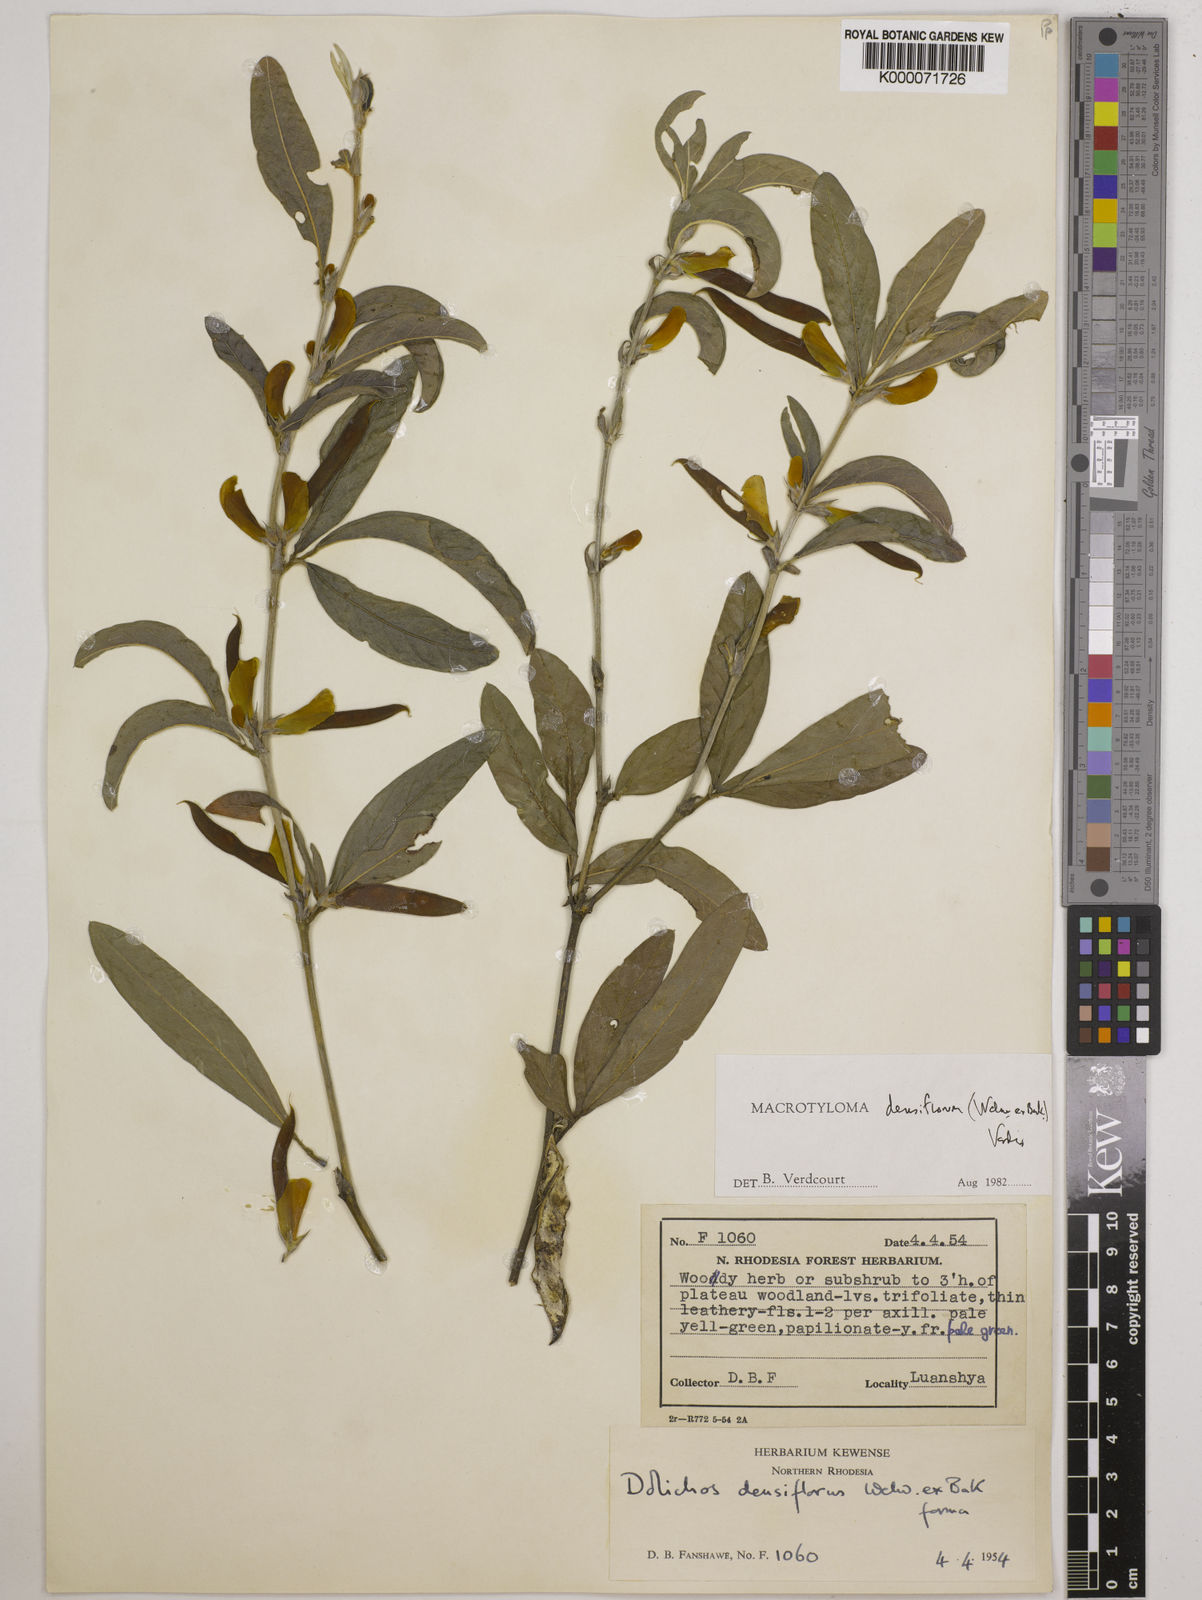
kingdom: Plantae
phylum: Tracheophyta
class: Magnoliopsida
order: Fabales
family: Fabaceae
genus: Macrotyloma
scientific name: Macrotyloma densiflorum
